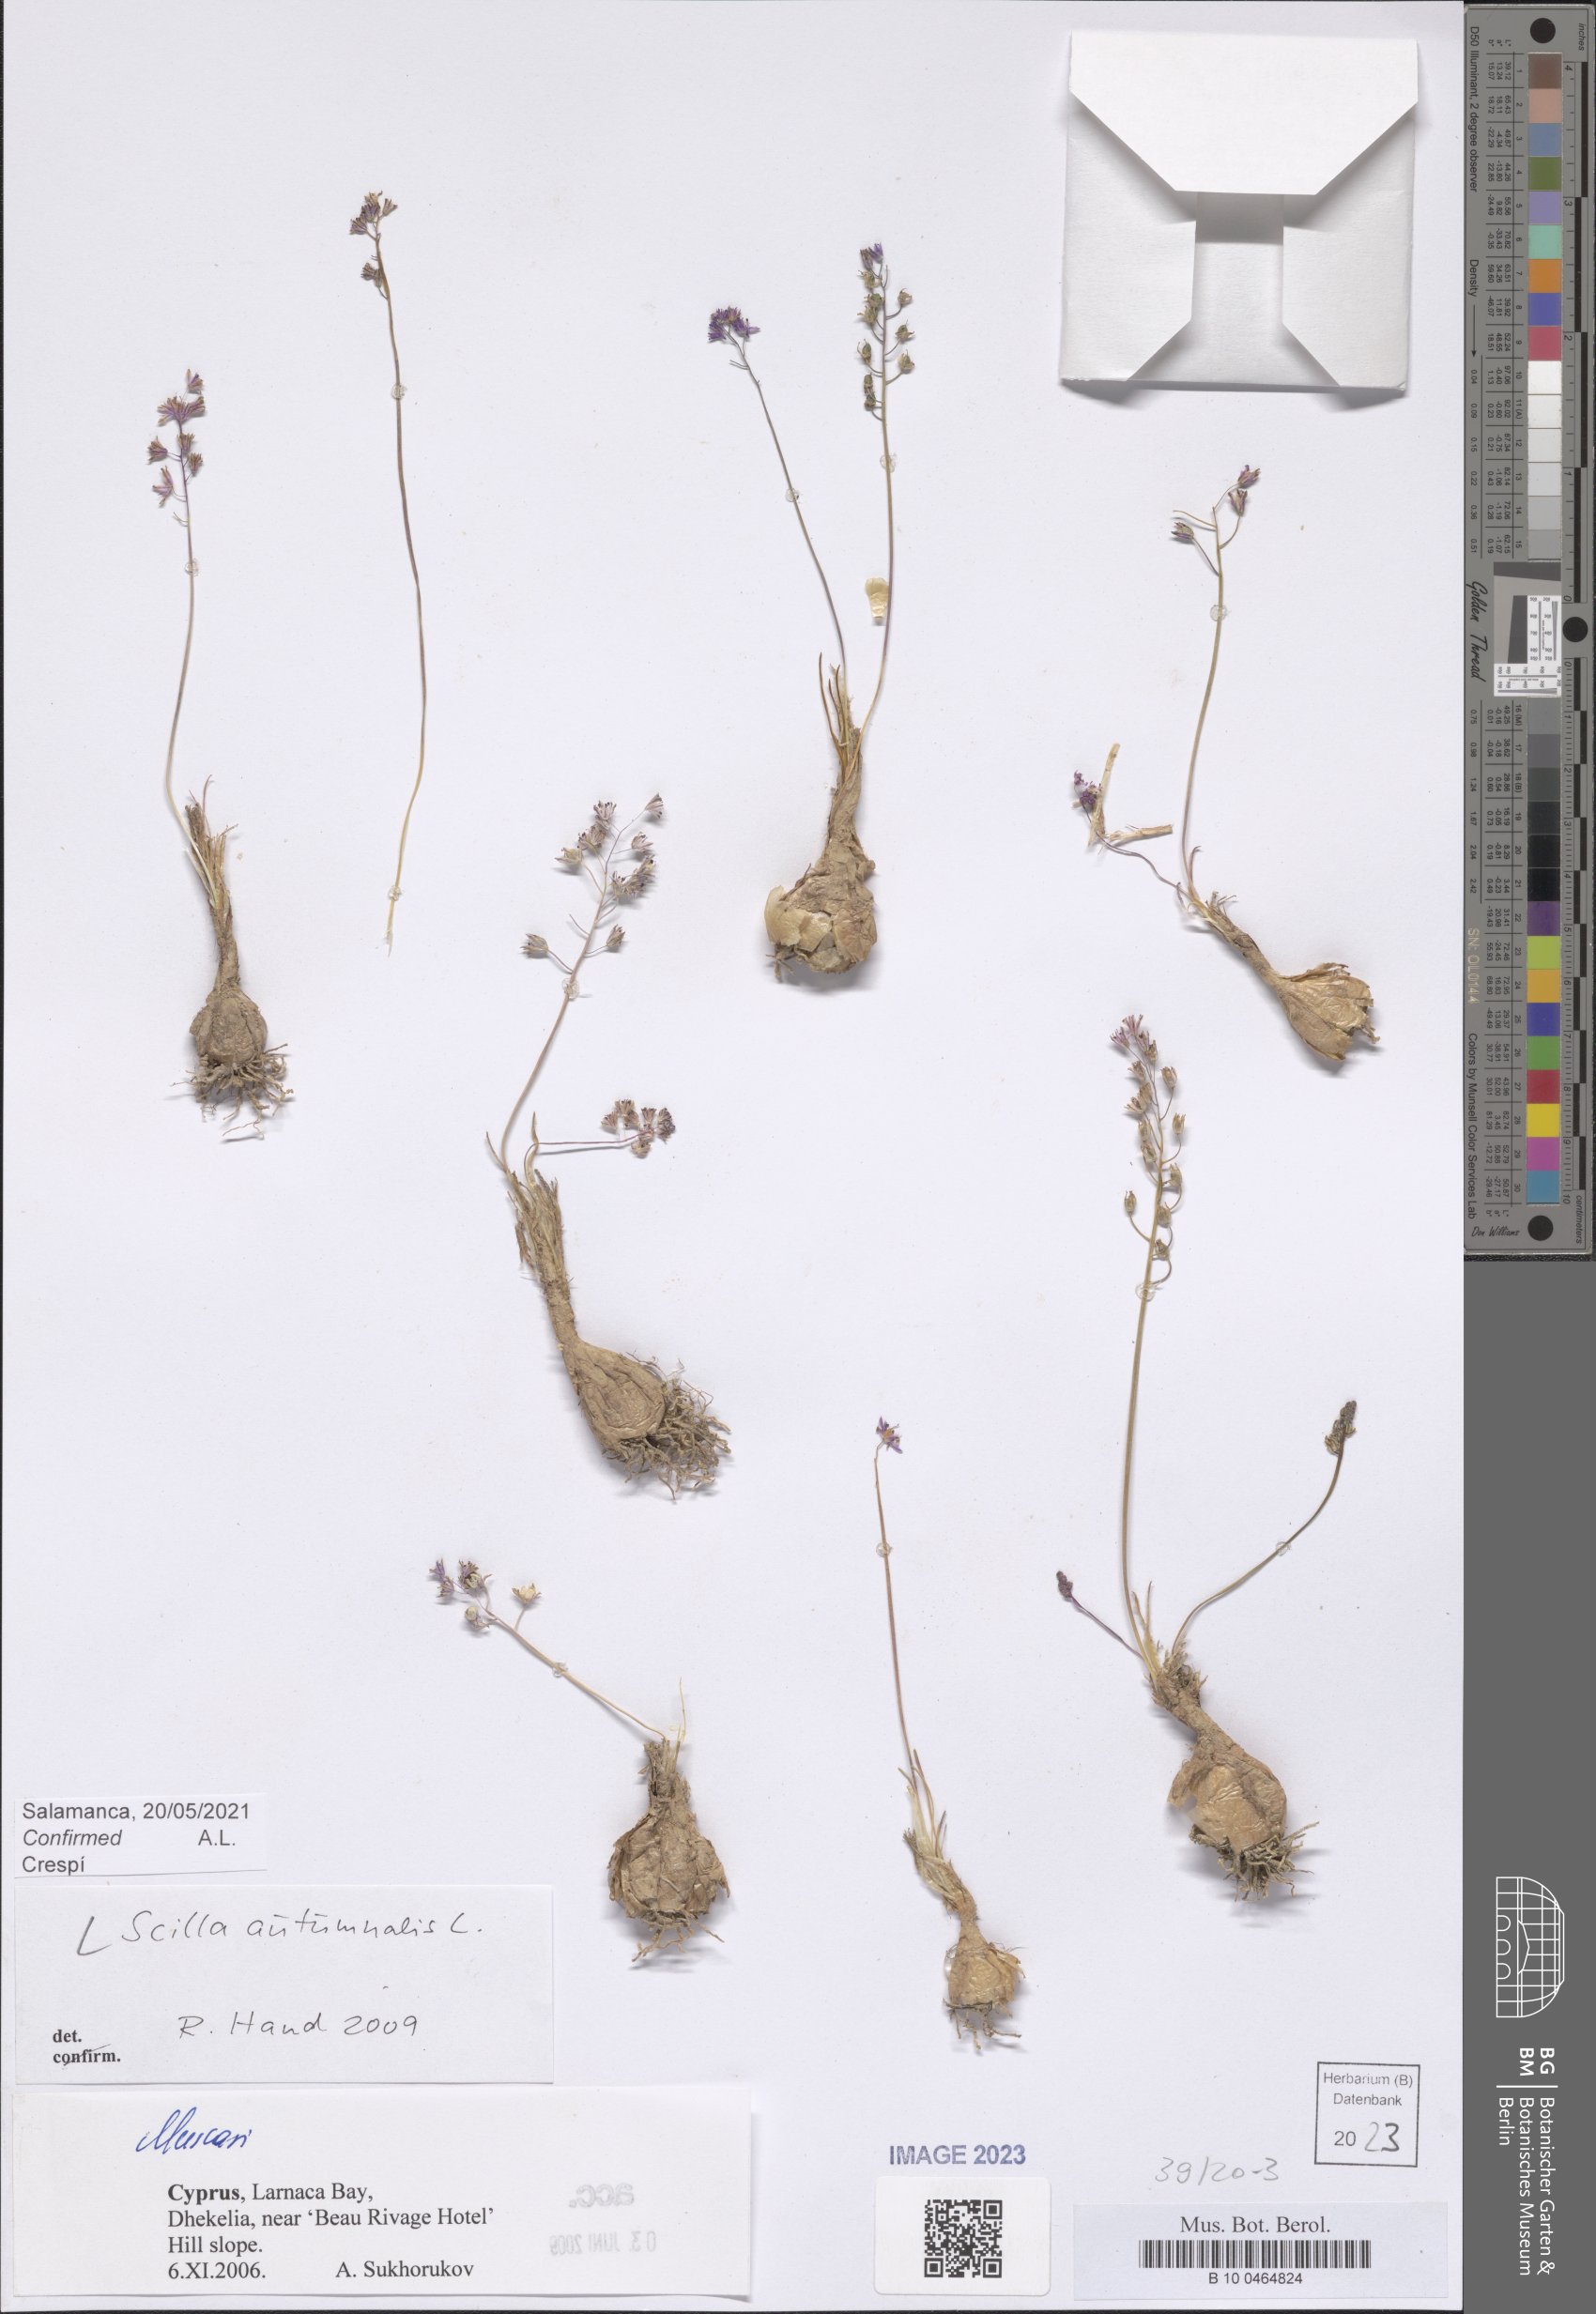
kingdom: Plantae
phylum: Tracheophyta
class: Liliopsida
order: Asparagales
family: Asparagaceae
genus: Prospero
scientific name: Prospero autumnale
